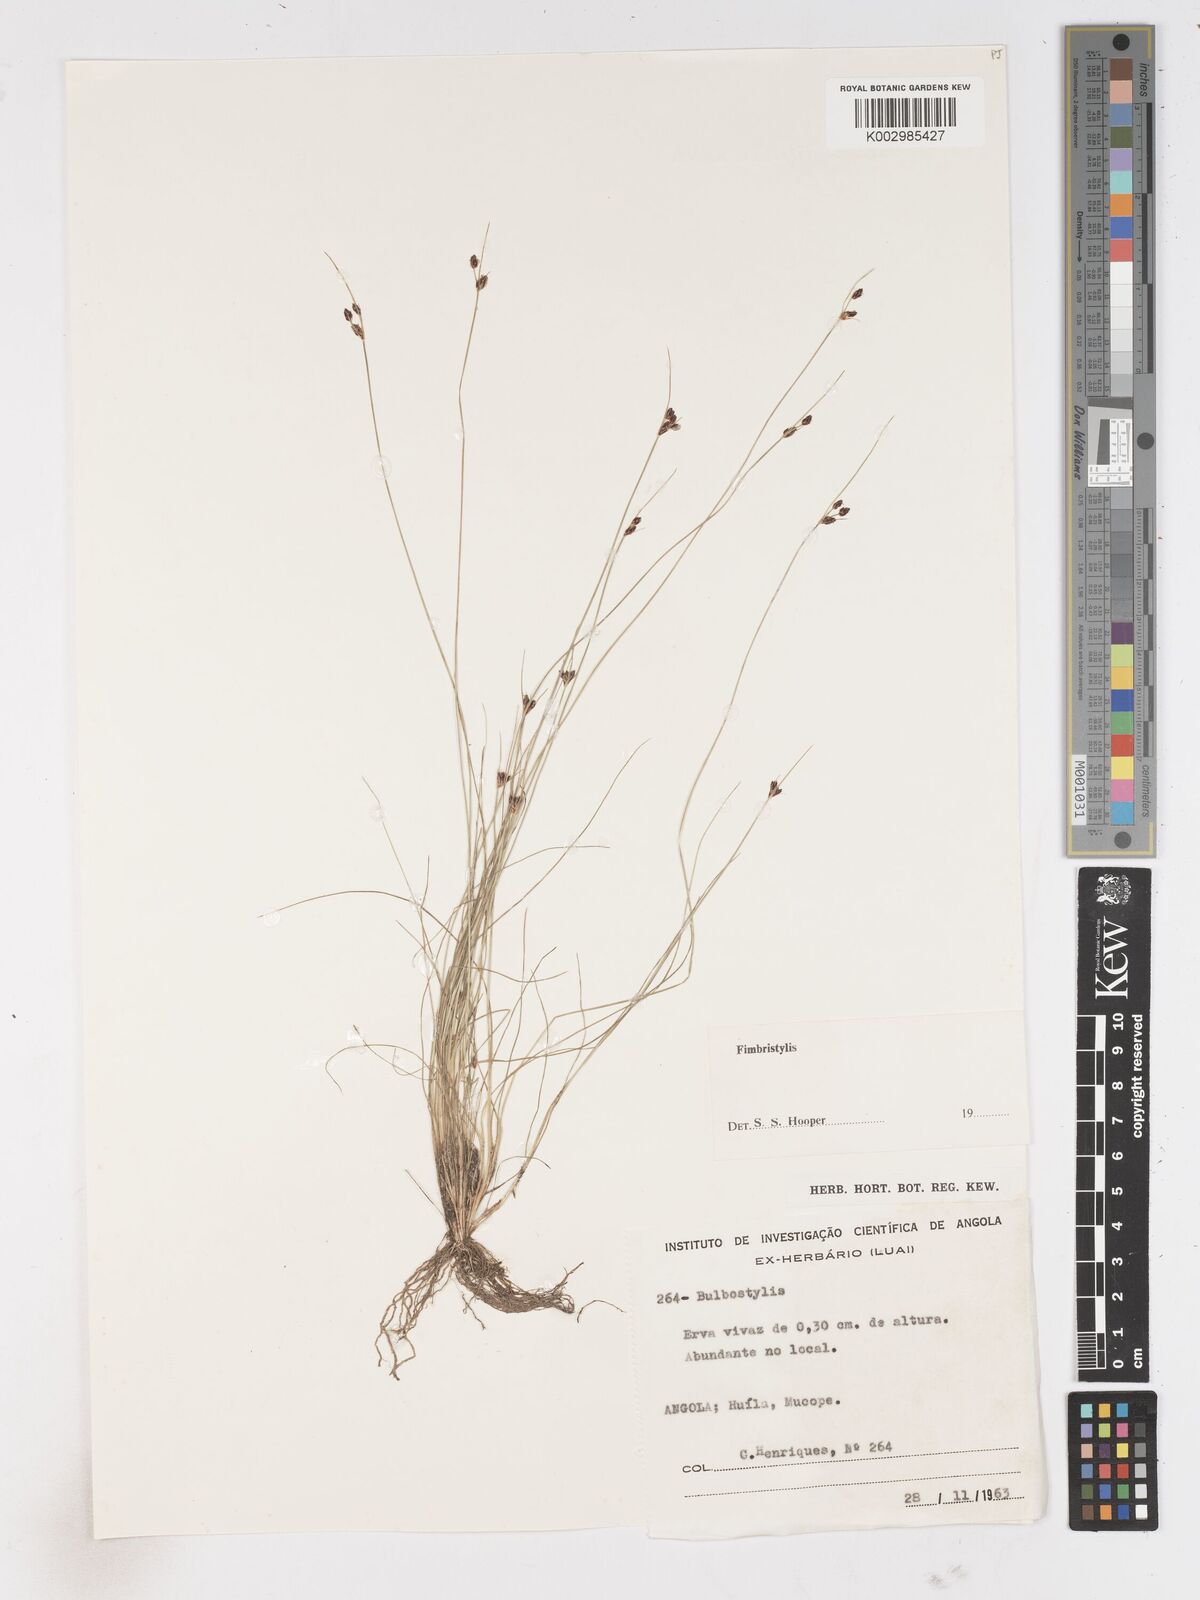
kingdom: Plantae
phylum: Tracheophyta
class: Liliopsida
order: Poales
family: Cyperaceae
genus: Fimbristylis
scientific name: Fimbristylis
